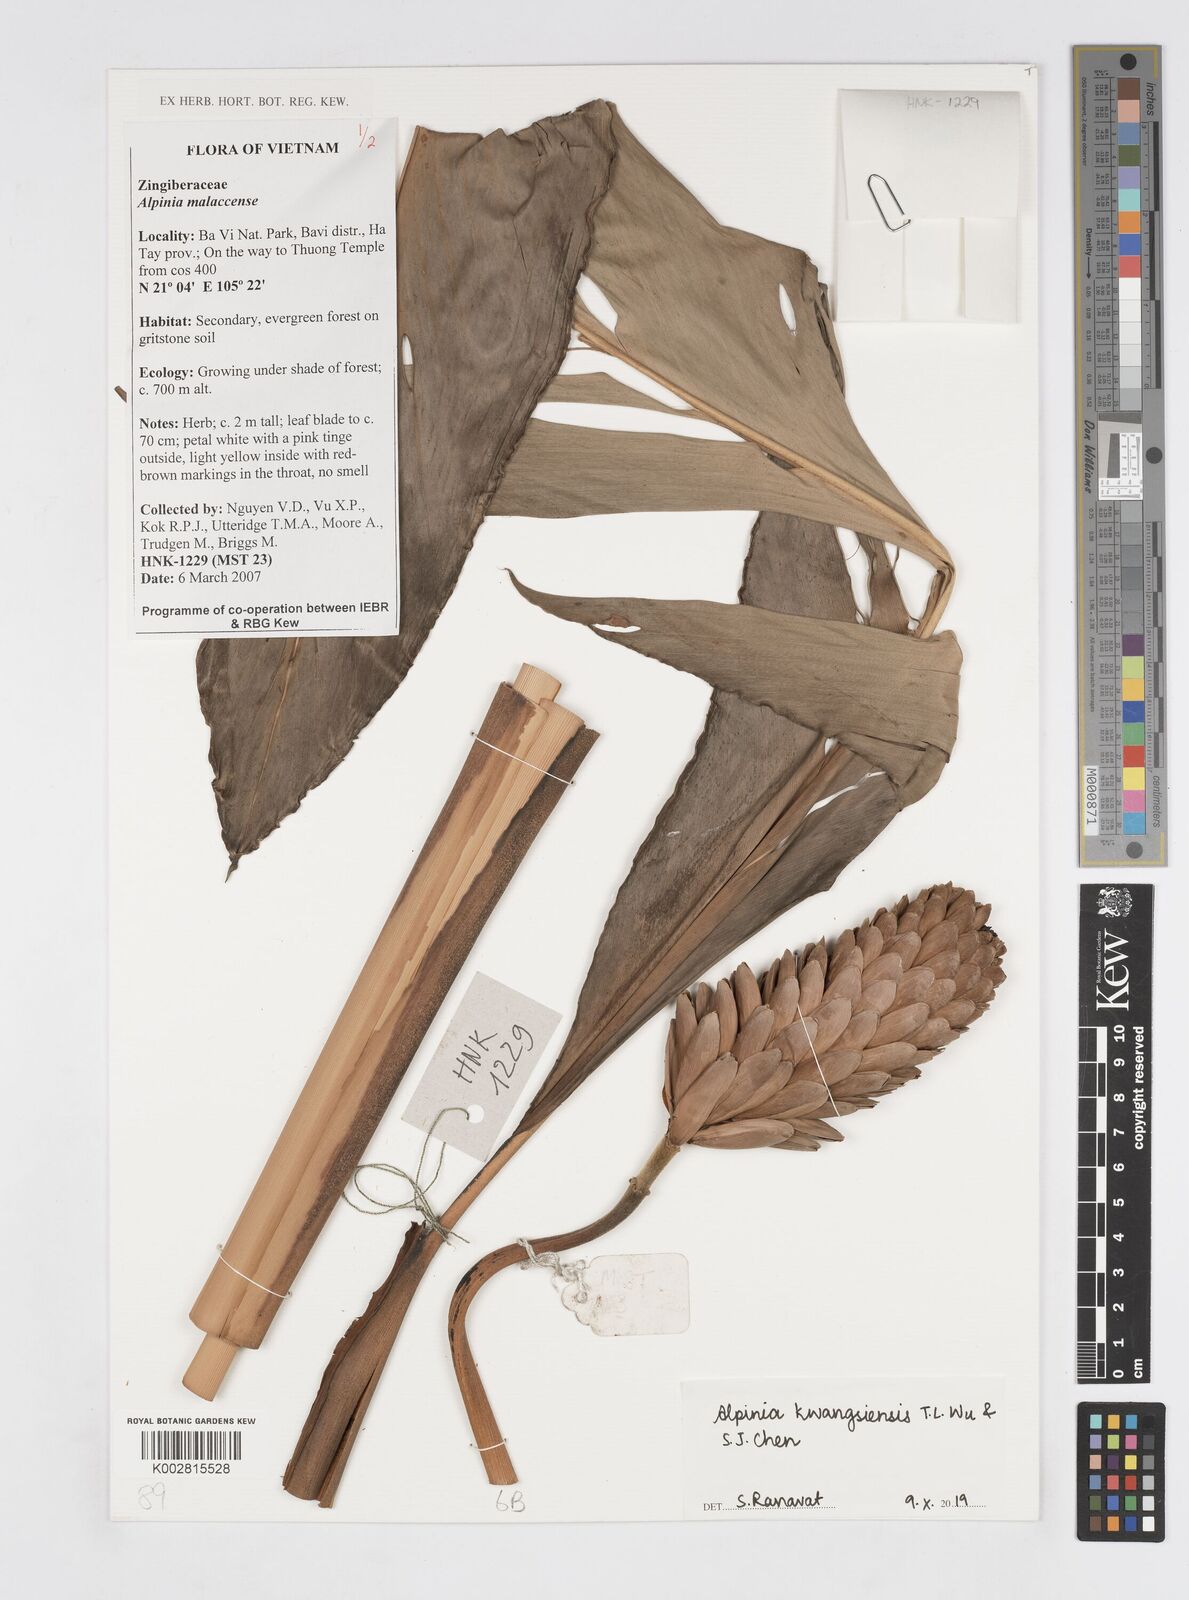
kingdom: Plantae
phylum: Tracheophyta
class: Liliopsida
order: Zingiberales
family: Zingiberaceae
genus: Alpinia
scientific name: Alpinia kwangsiensis
